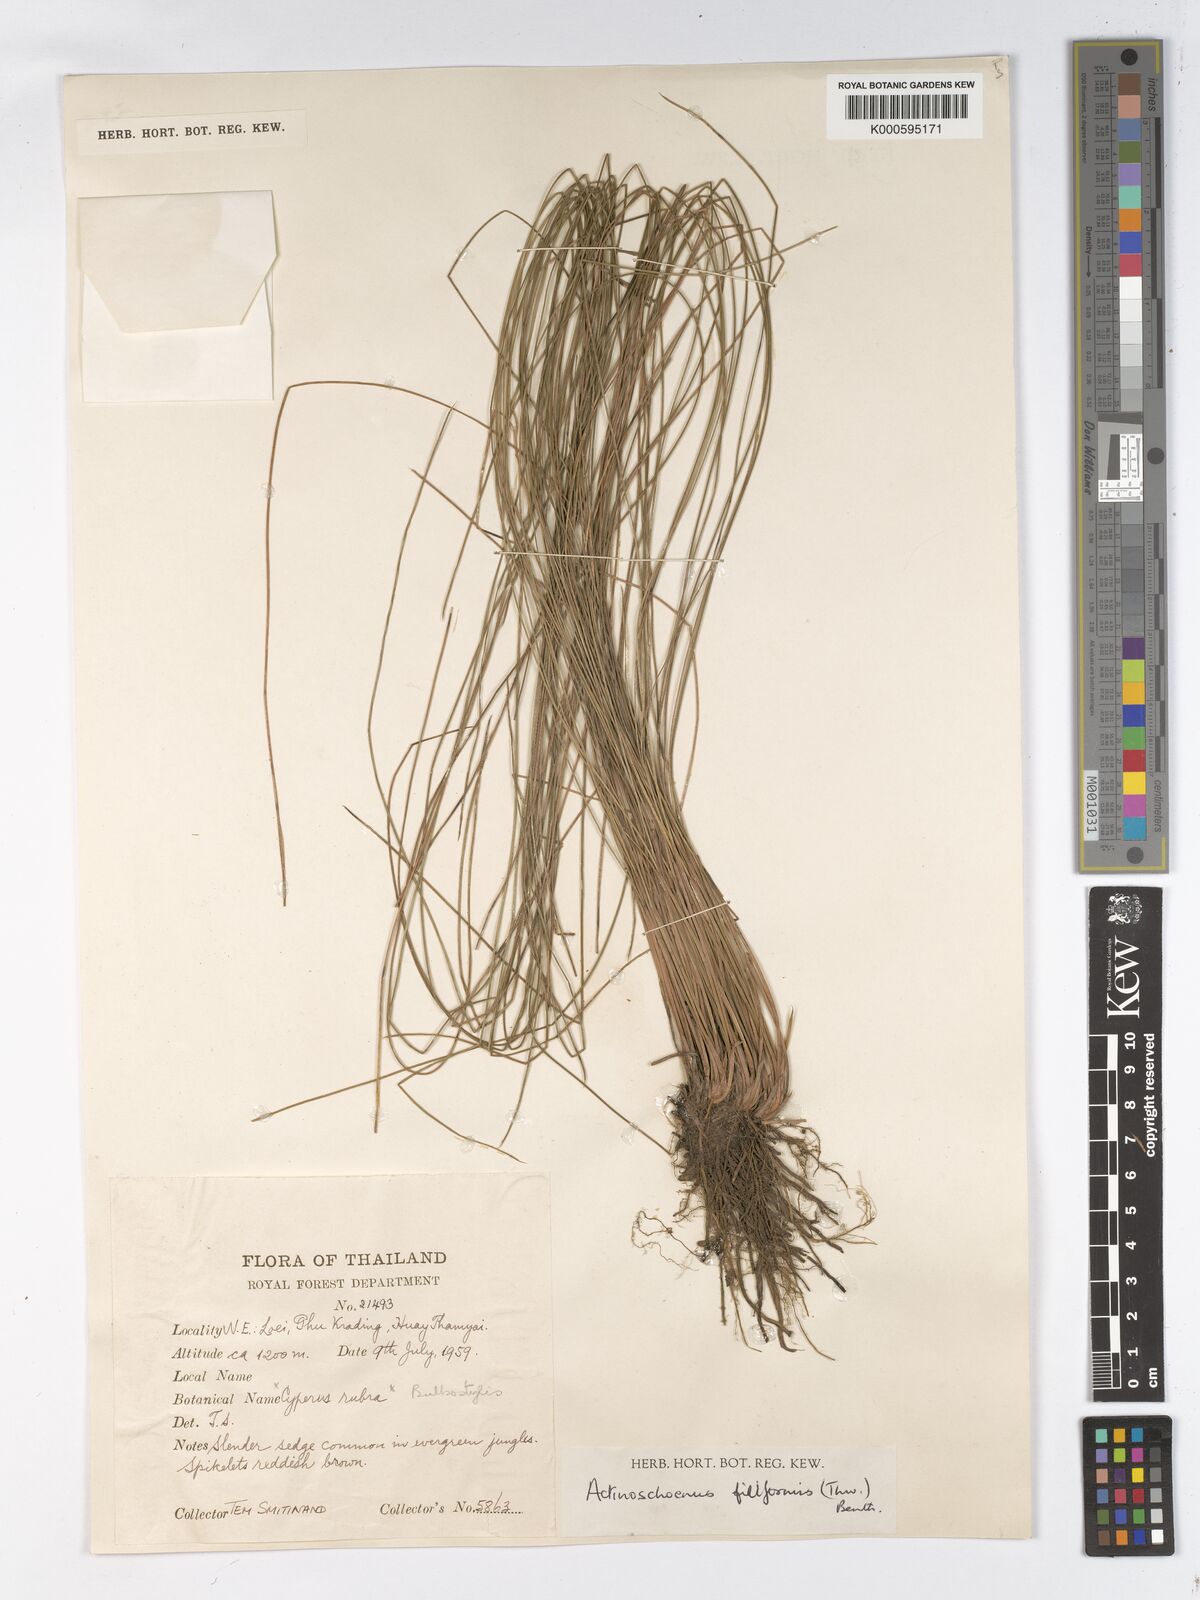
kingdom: Plantae
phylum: Tracheophyta
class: Liliopsida
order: Poales
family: Cyperaceae
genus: Actinoschoenus
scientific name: Actinoschoenus aphyllus
